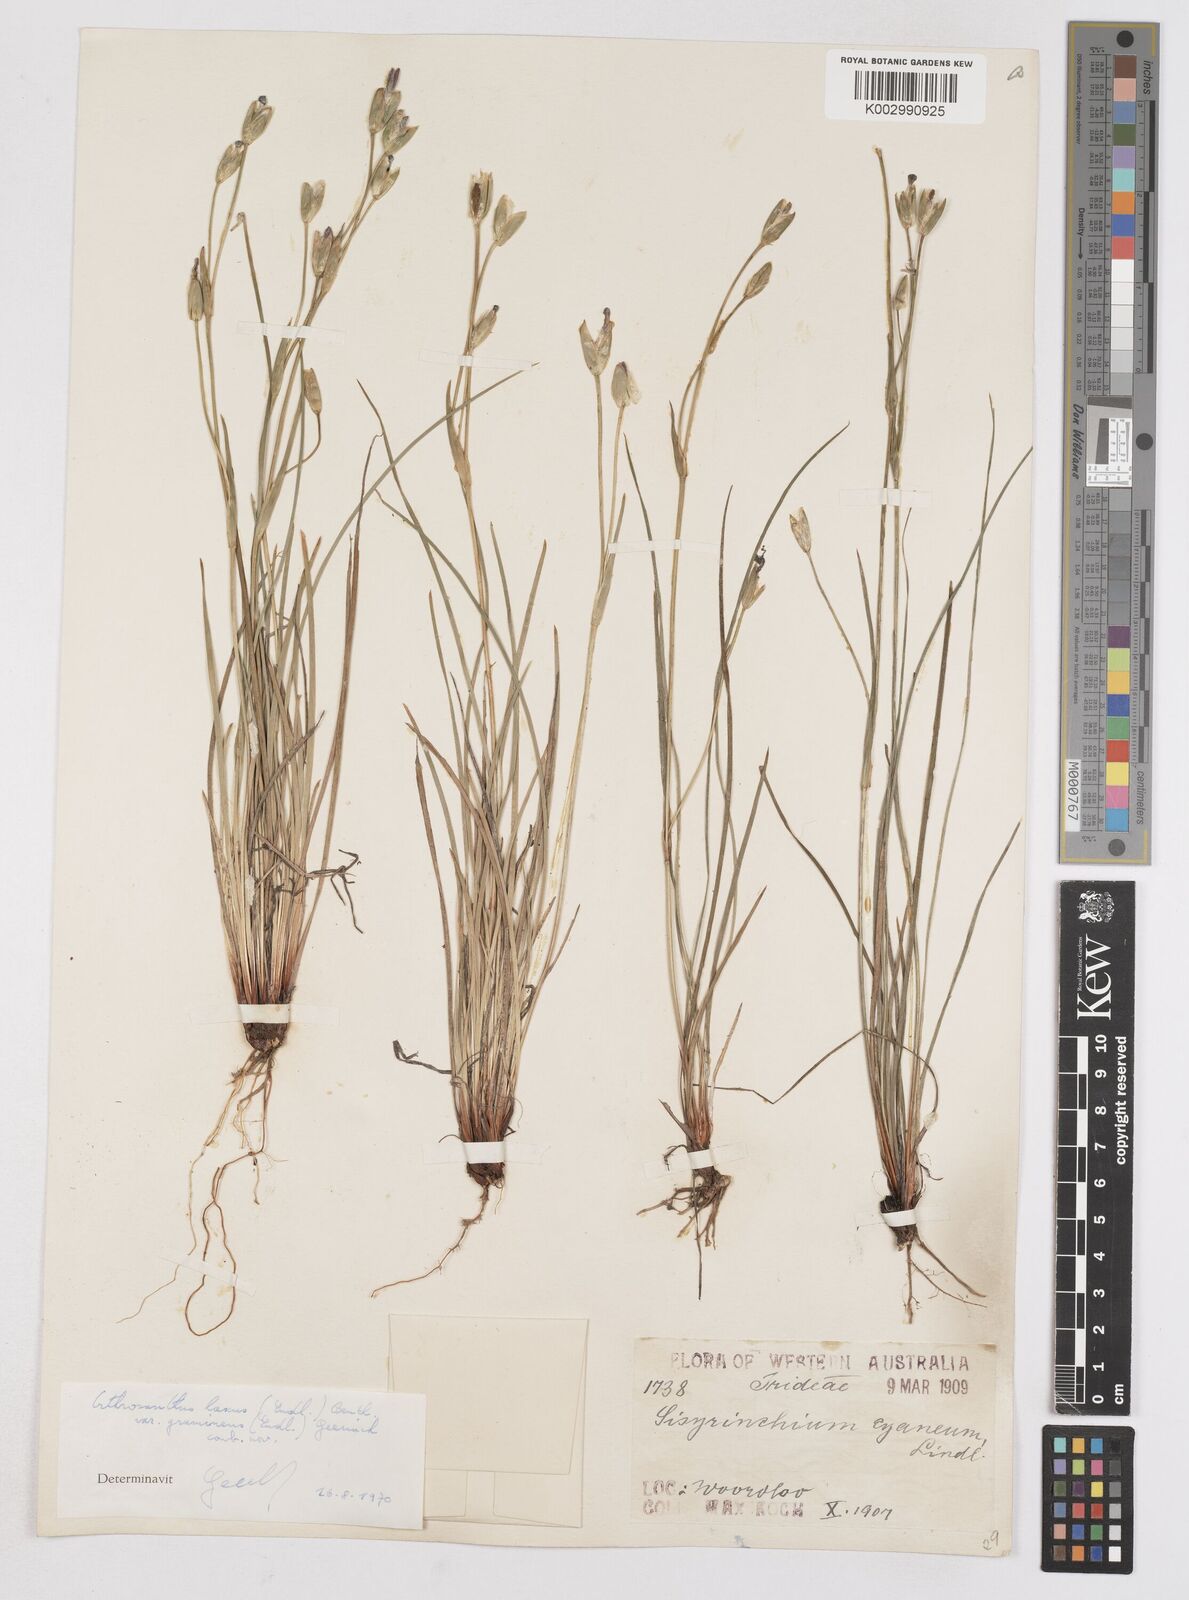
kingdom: Plantae
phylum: Tracheophyta
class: Liliopsida
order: Asparagales
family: Iridaceae
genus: Orthrosanthus
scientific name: Orthrosanthus laxus
